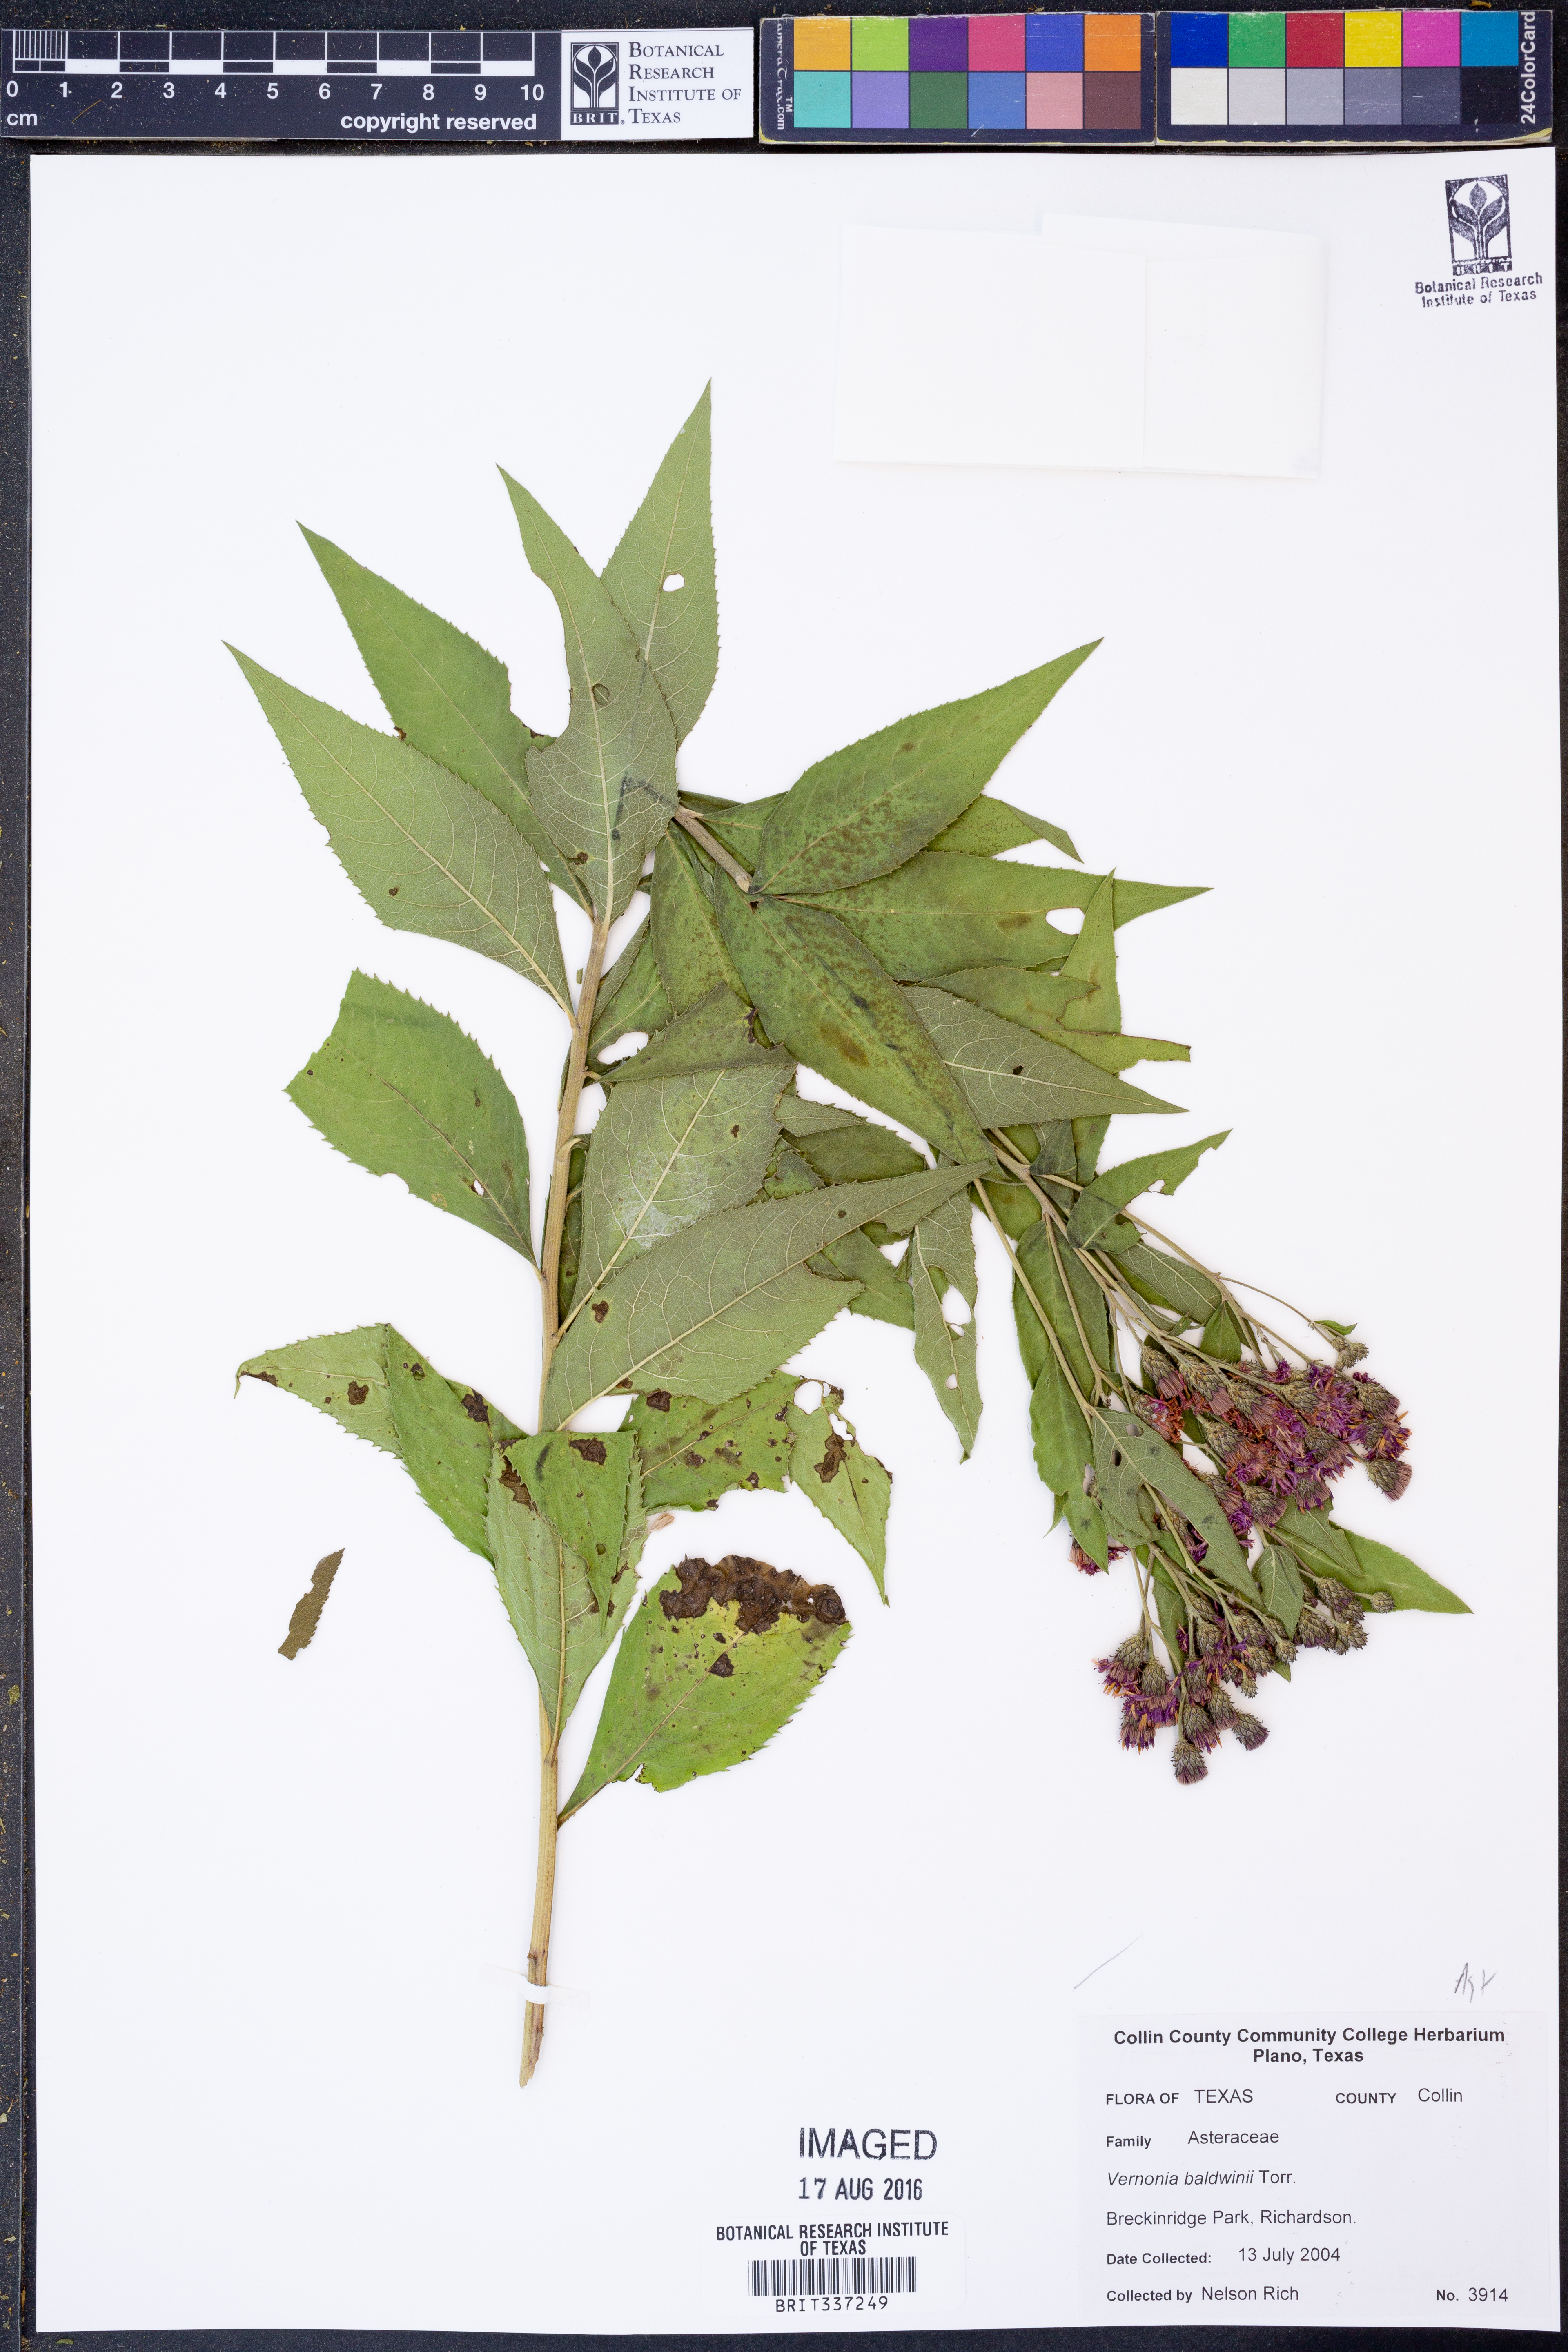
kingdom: Plantae
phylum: Tracheophyta
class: Magnoliopsida
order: Asterales
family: Asteraceae
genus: Vernonia
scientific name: Vernonia baldwinii
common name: Western ironweed
